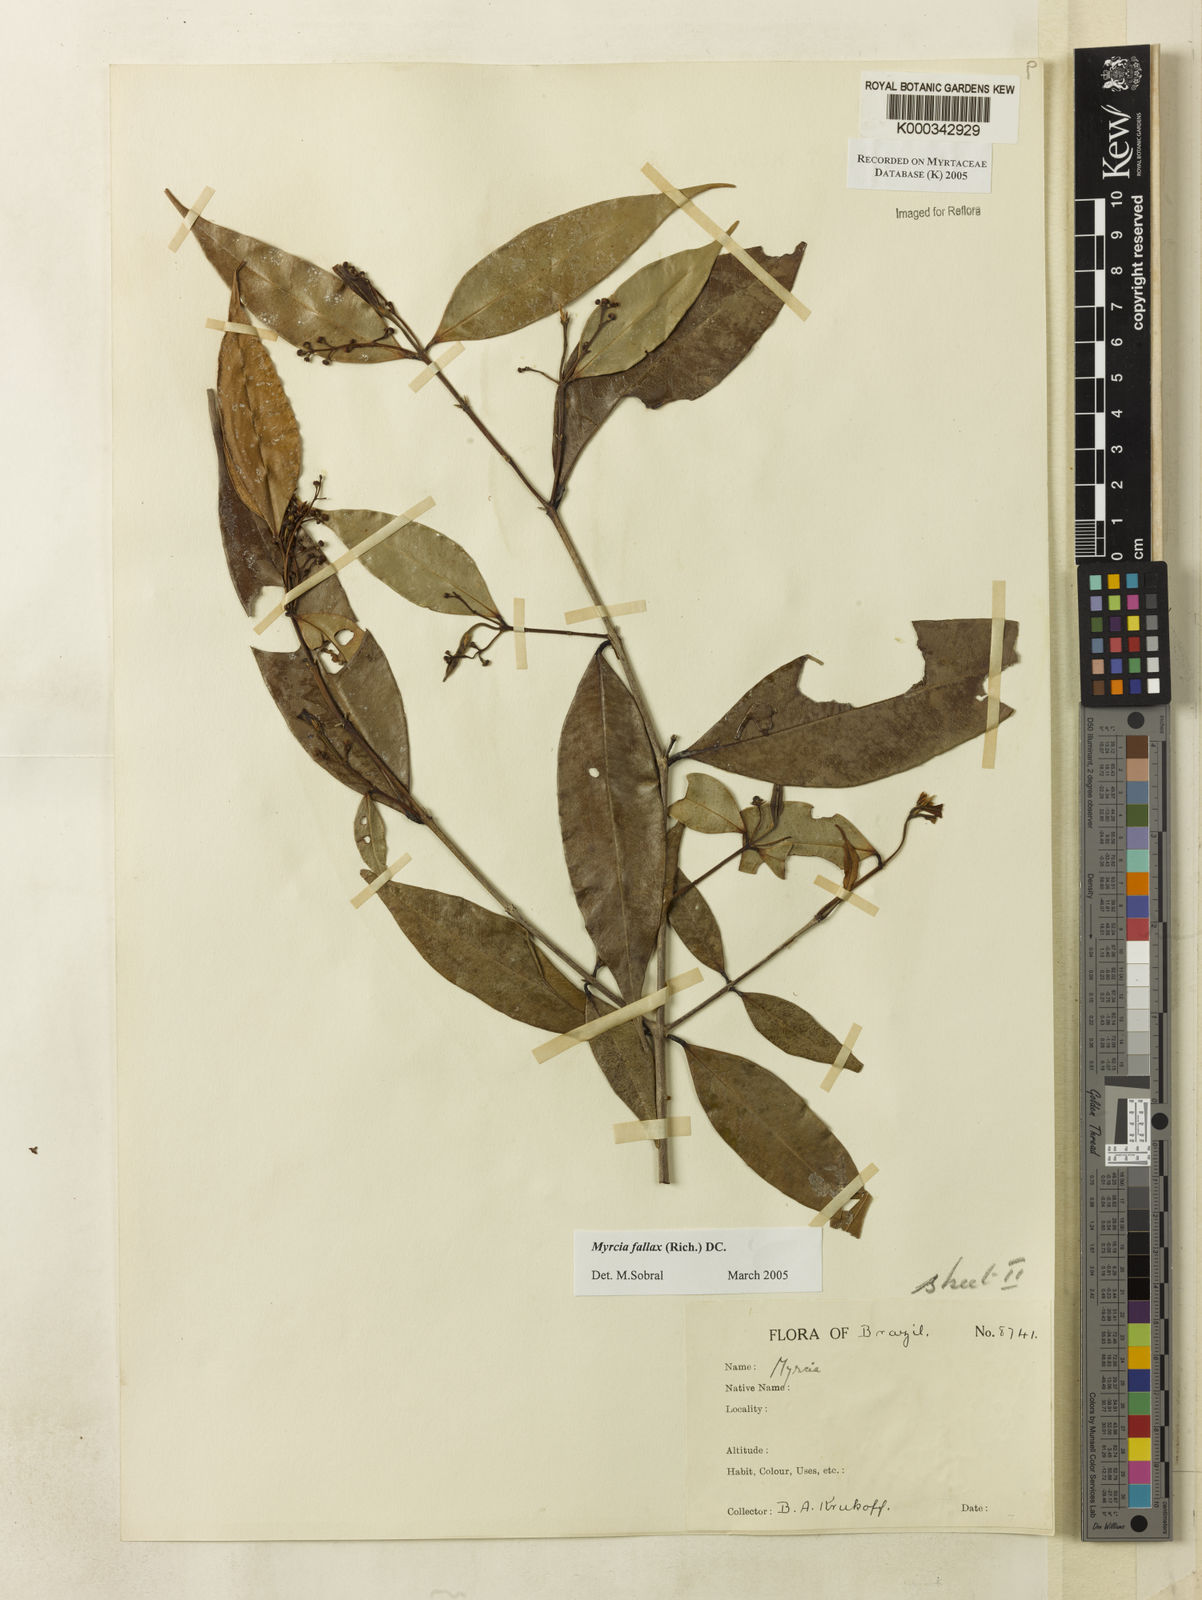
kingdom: Plantae
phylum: Tracheophyta
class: Magnoliopsida
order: Myrtales
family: Myrtaceae
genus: Myrcia
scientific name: Myrcia splendens
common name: Surinam cherry
